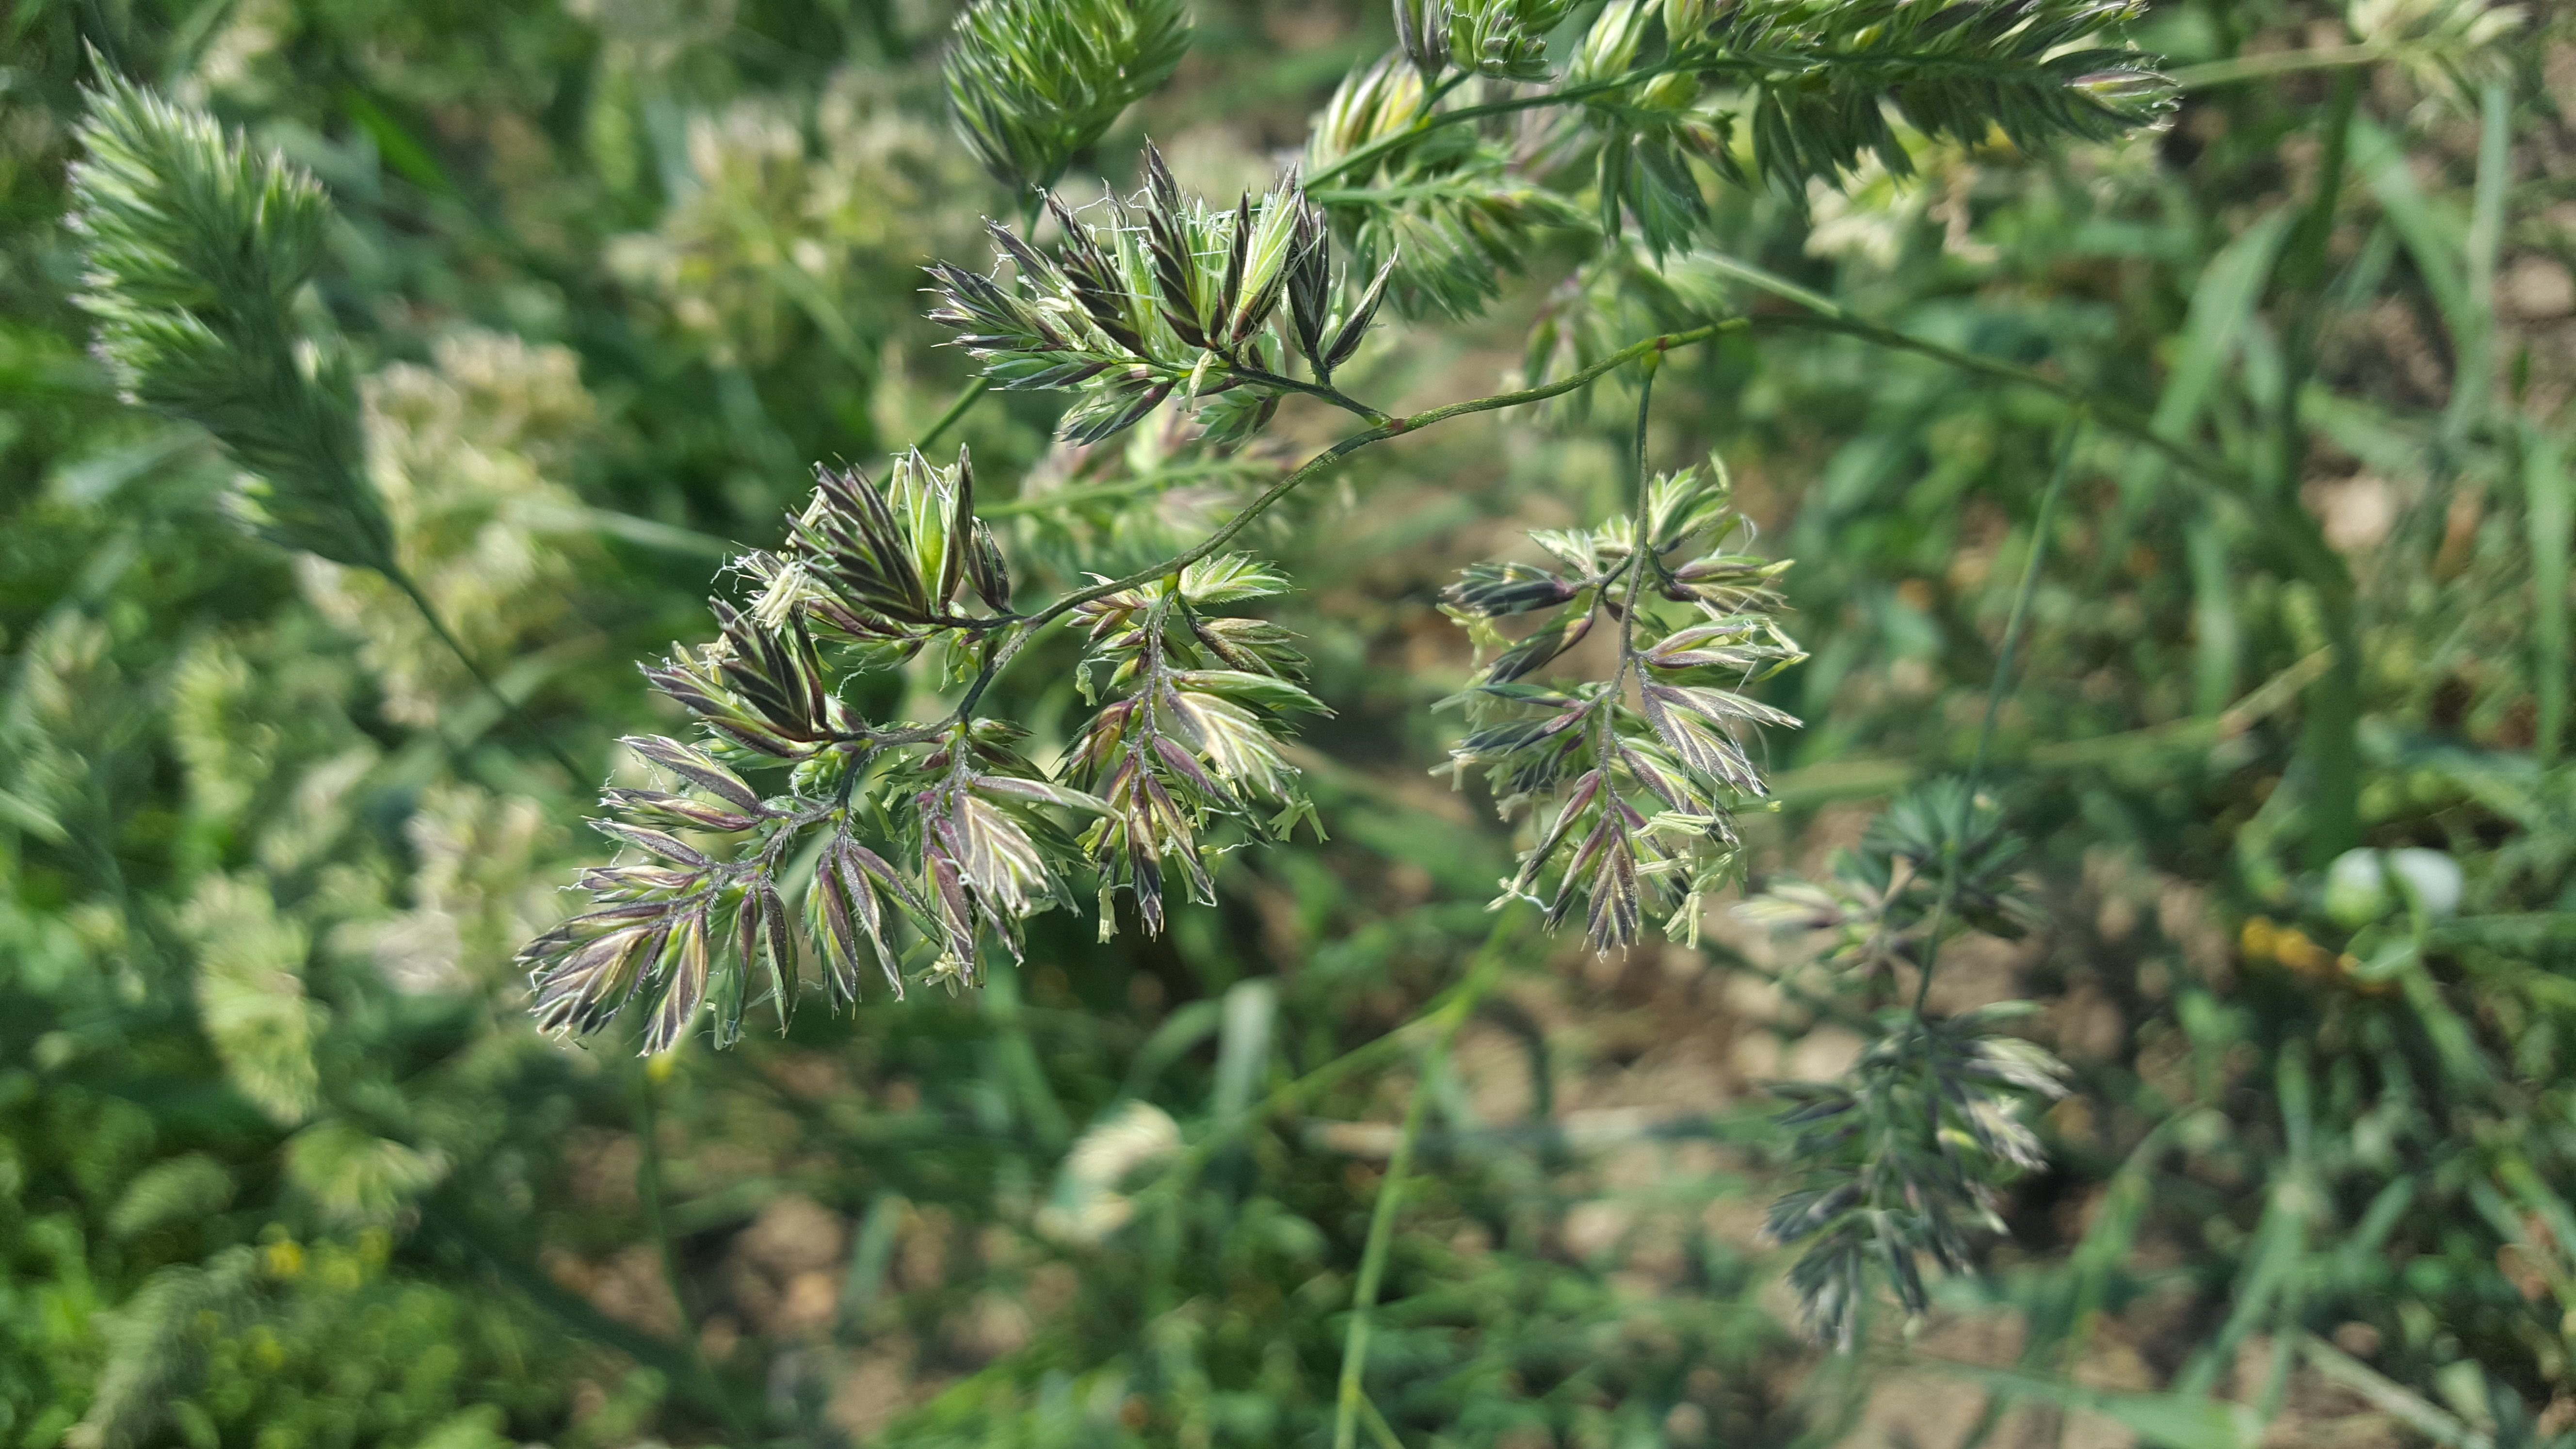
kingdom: Plantae
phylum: Tracheophyta
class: Liliopsida
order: Poales
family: Poaceae
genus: Dactylis
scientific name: Dactylis glomerata
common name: Orchardgrass
